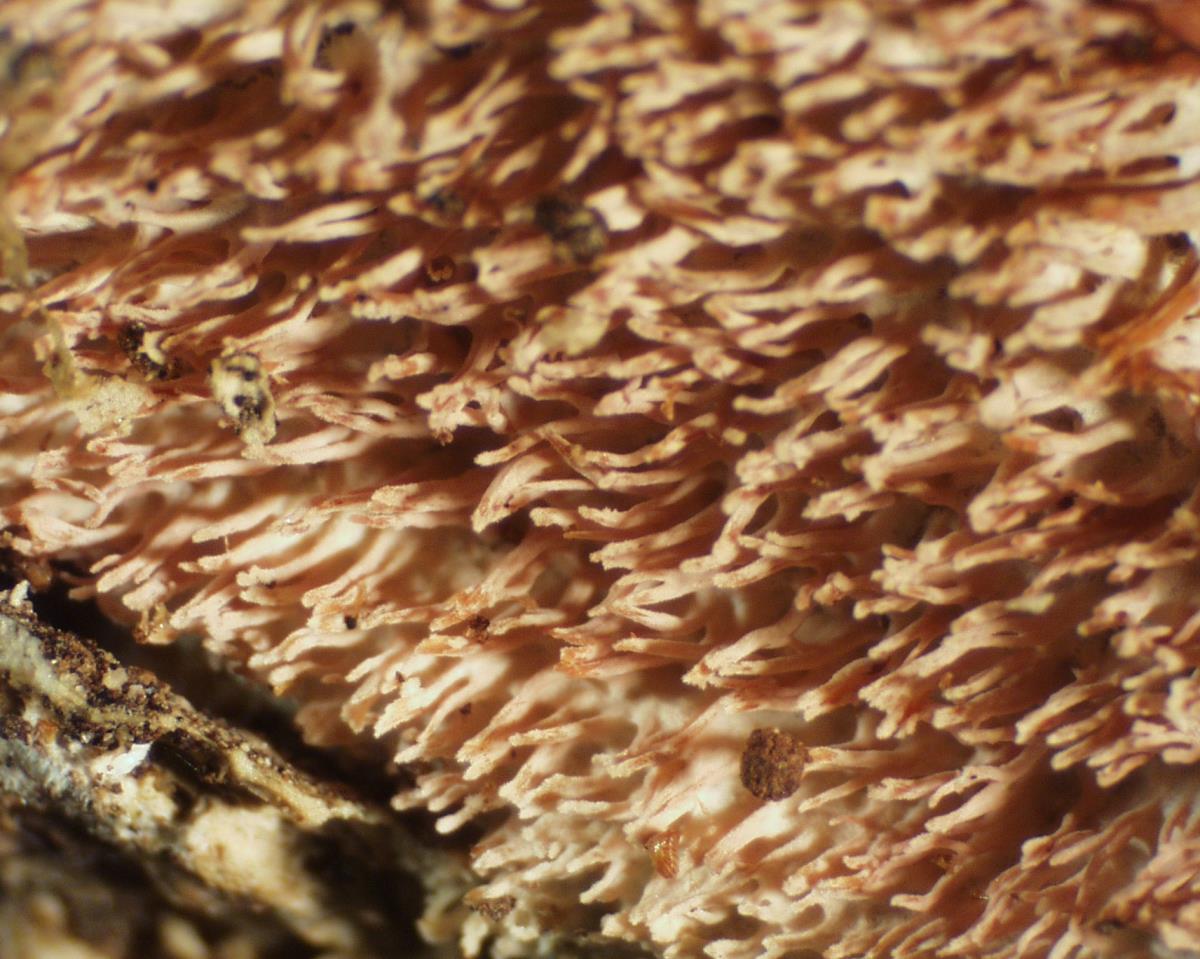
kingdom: Fungi
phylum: Basidiomycota
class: Agaricomycetes
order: Hymenochaetales
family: Hyphodontiaceae
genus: Hyphodontia
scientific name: Hyphodontia arguta
